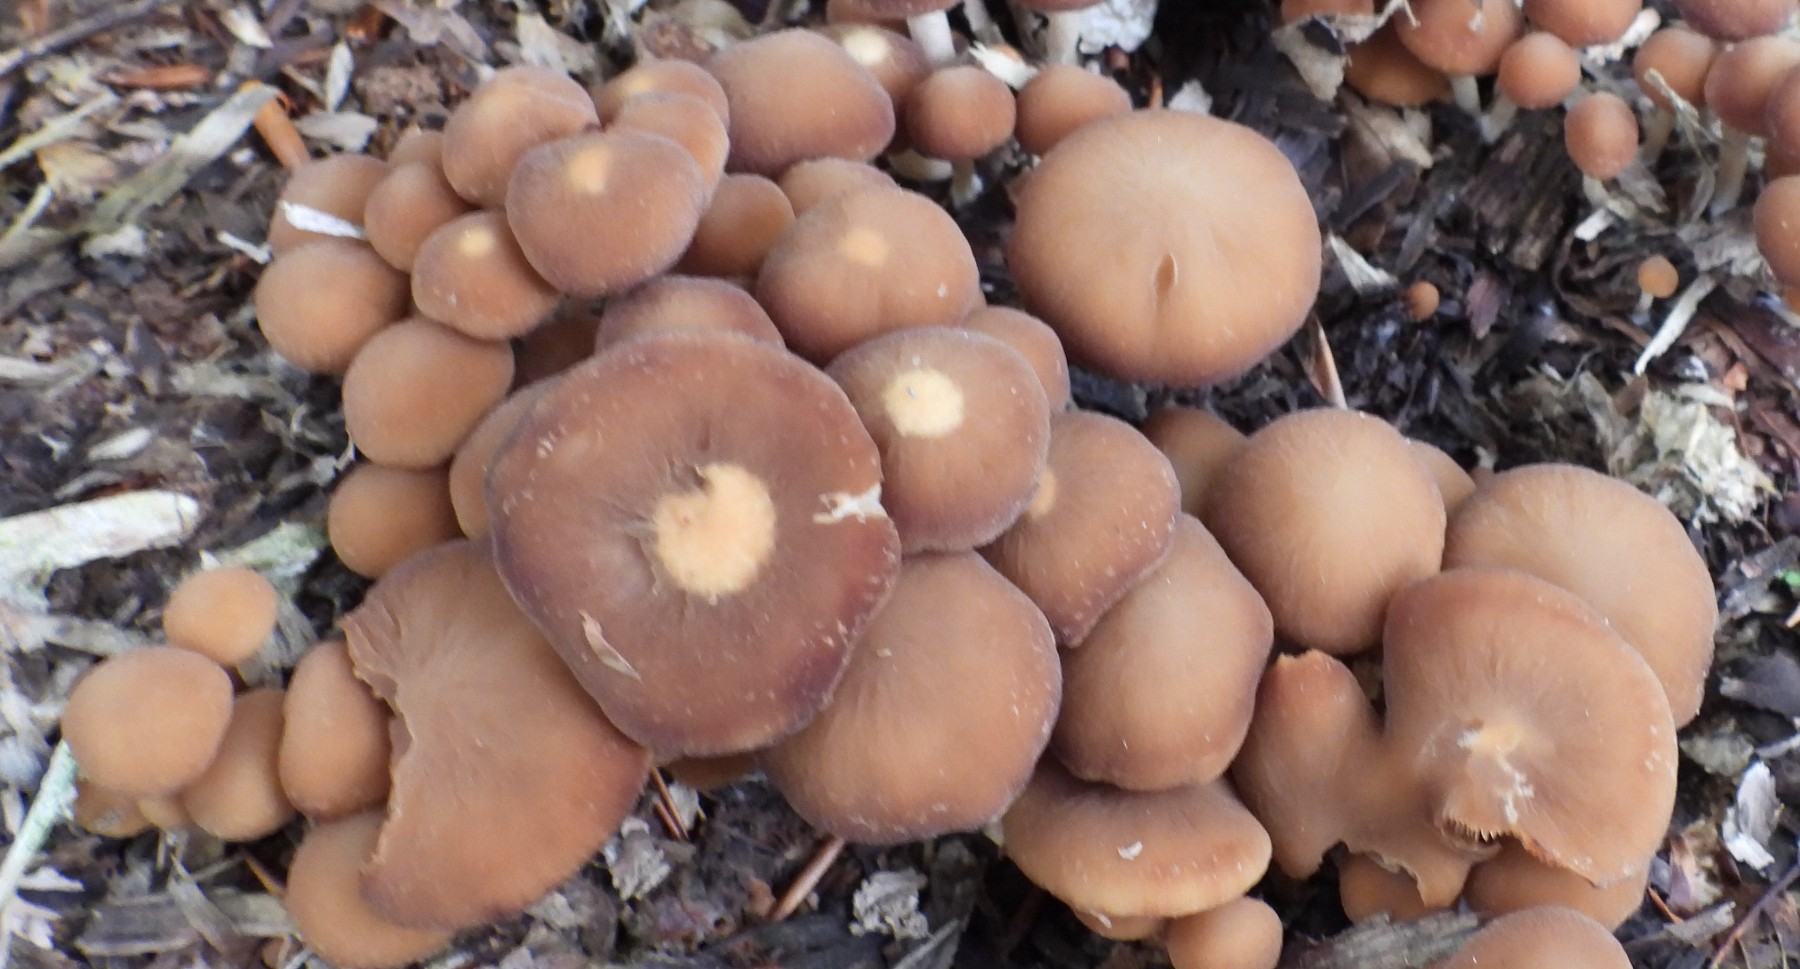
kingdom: Fungi
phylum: Basidiomycota
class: Agaricomycetes
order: Agaricales
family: Psathyrellaceae
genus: Psathyrella
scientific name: Psathyrella piluliformis
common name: lysstokket mørkhat
